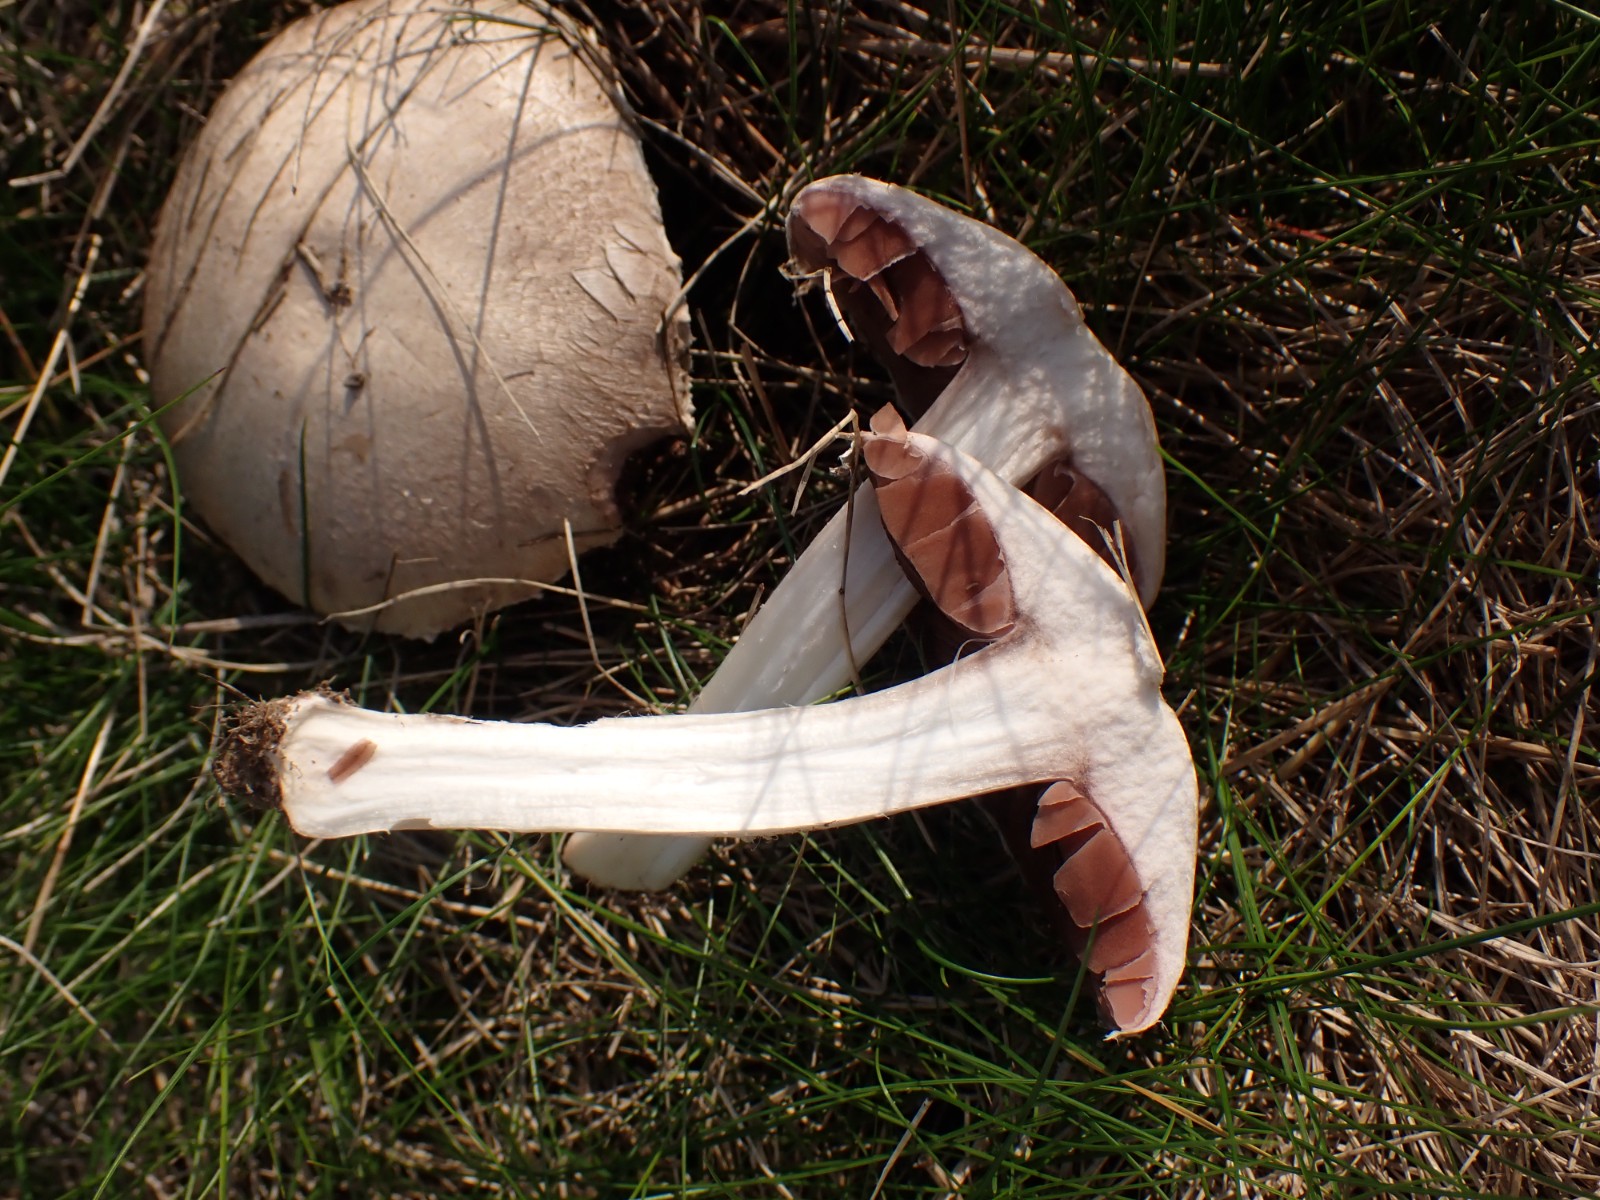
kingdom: Fungi
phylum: Basidiomycota
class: Agaricomycetes
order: Agaricales
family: Agaricaceae
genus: Agaricus
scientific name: Agaricus
